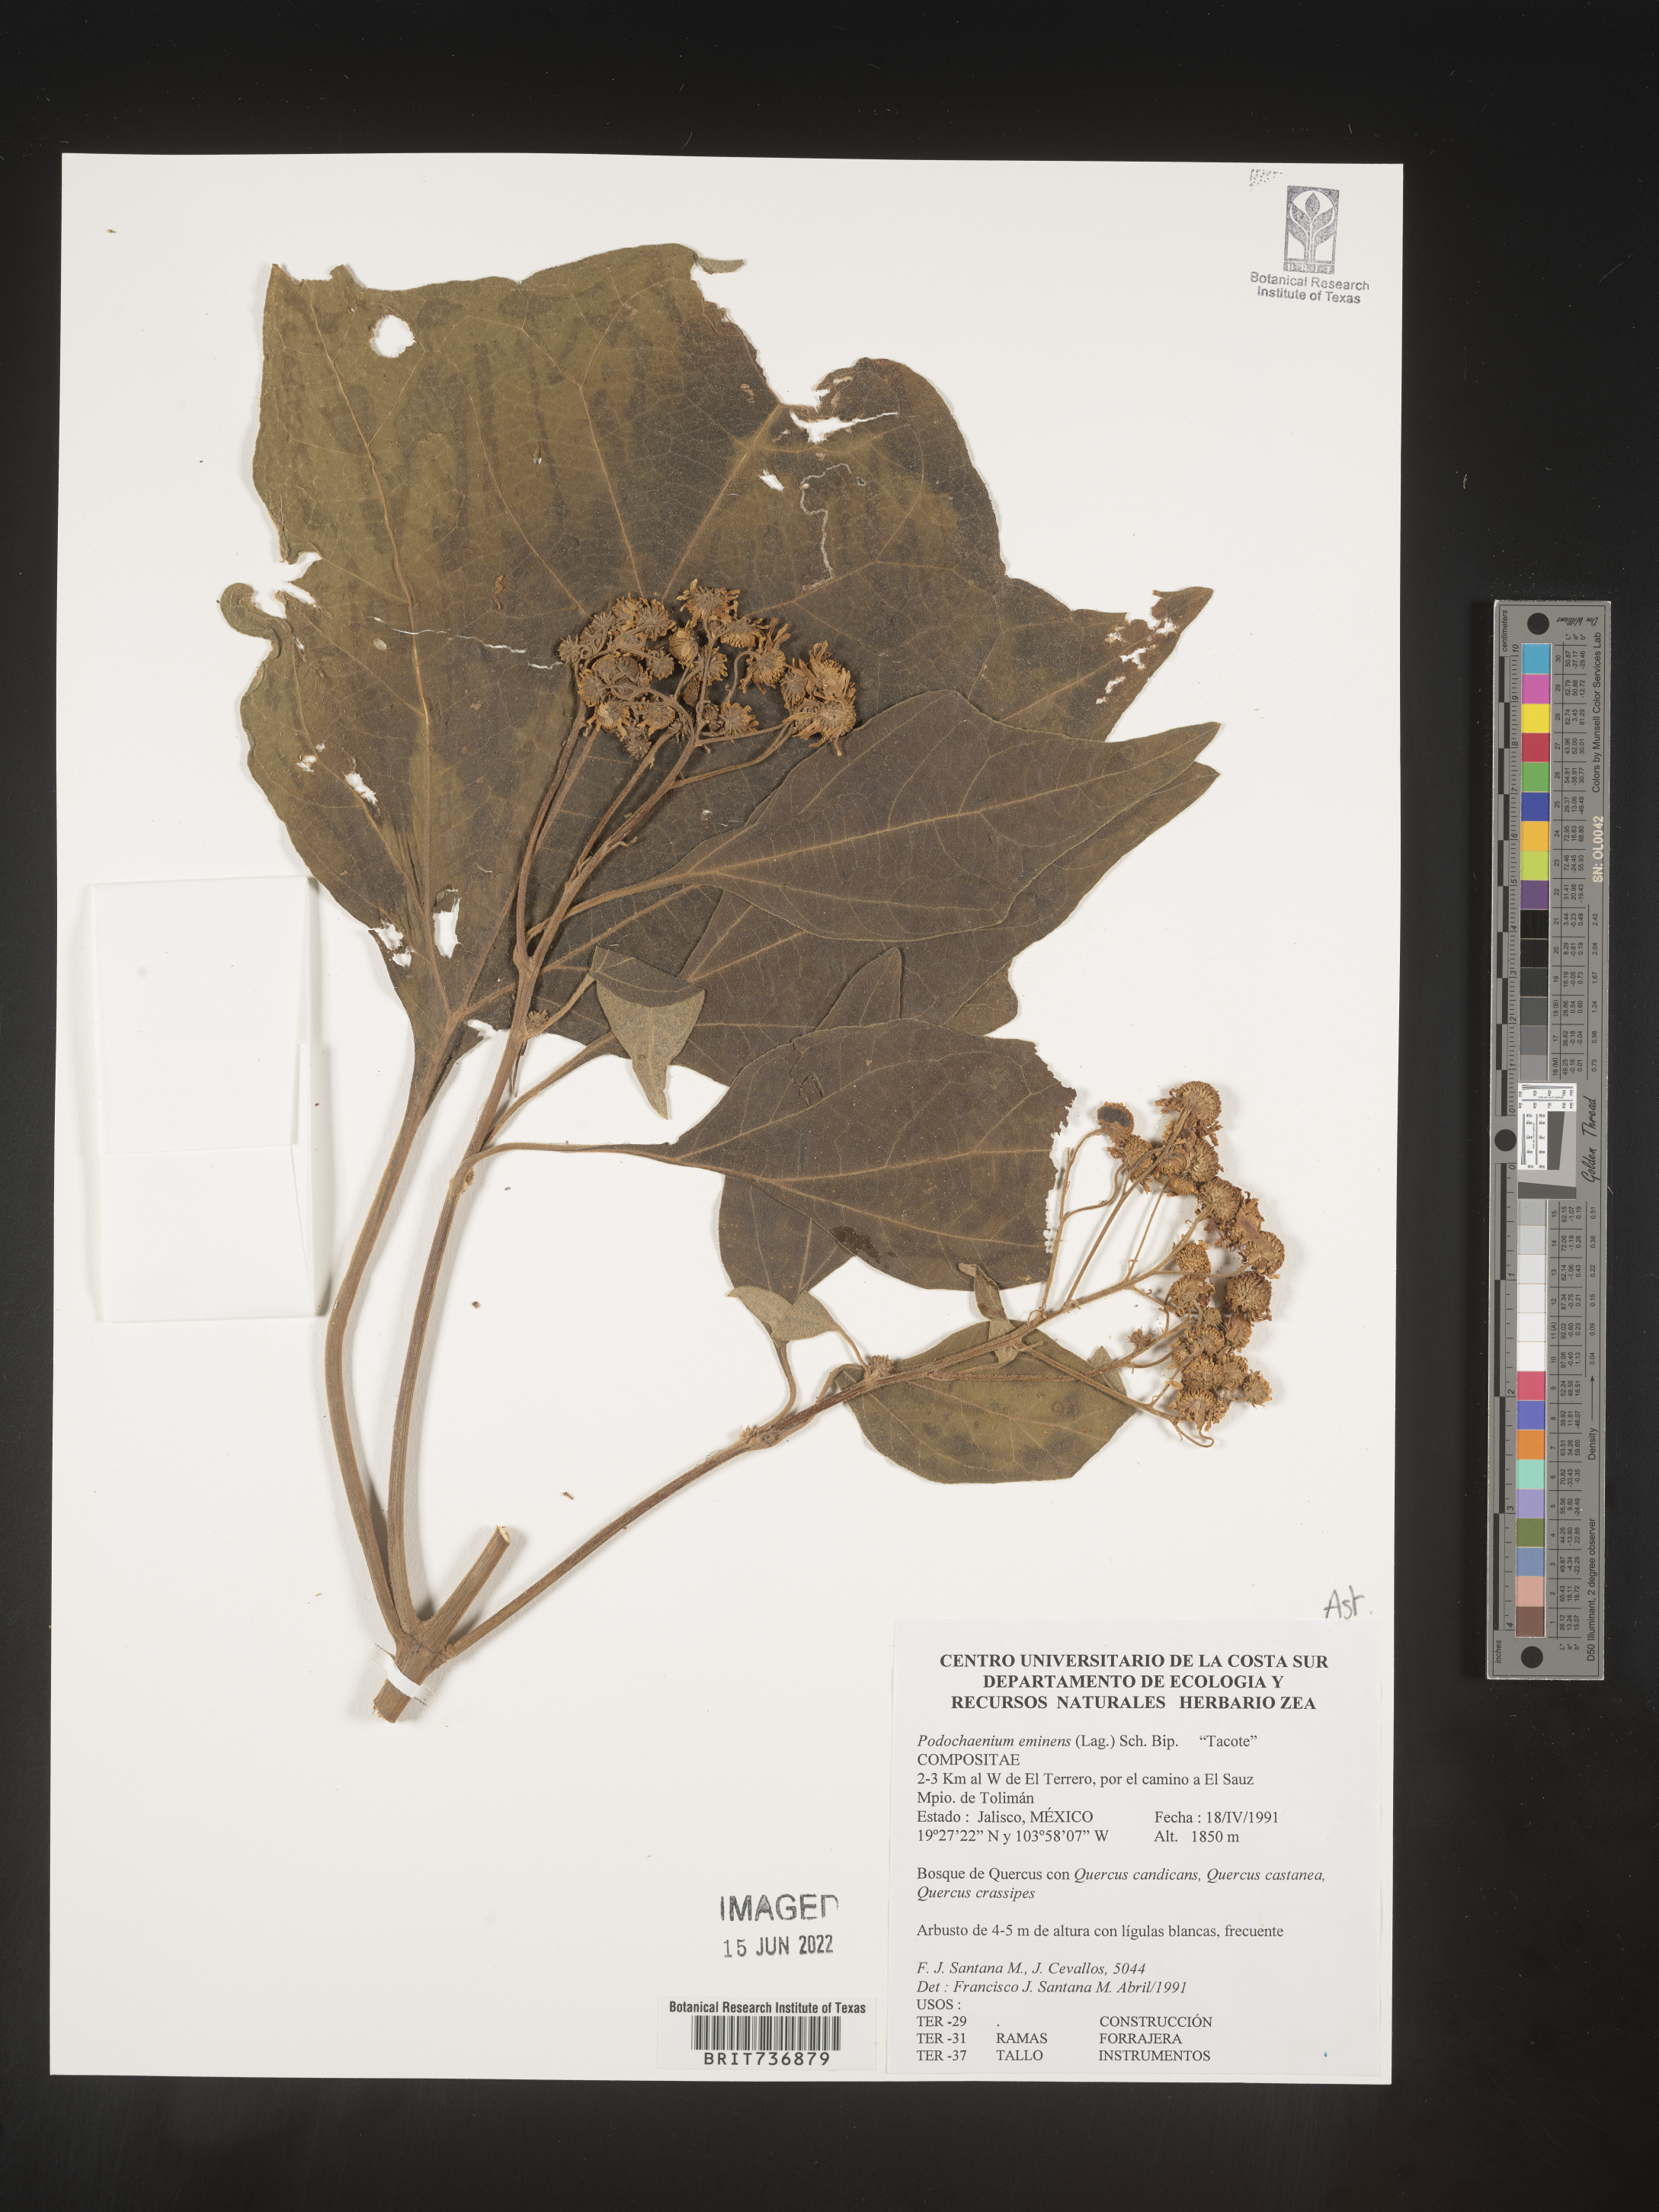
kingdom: Plantae
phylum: Tracheophyta
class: Magnoliopsida
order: Asterales
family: Asteraceae
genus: Podachaenium
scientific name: Podachaenium
